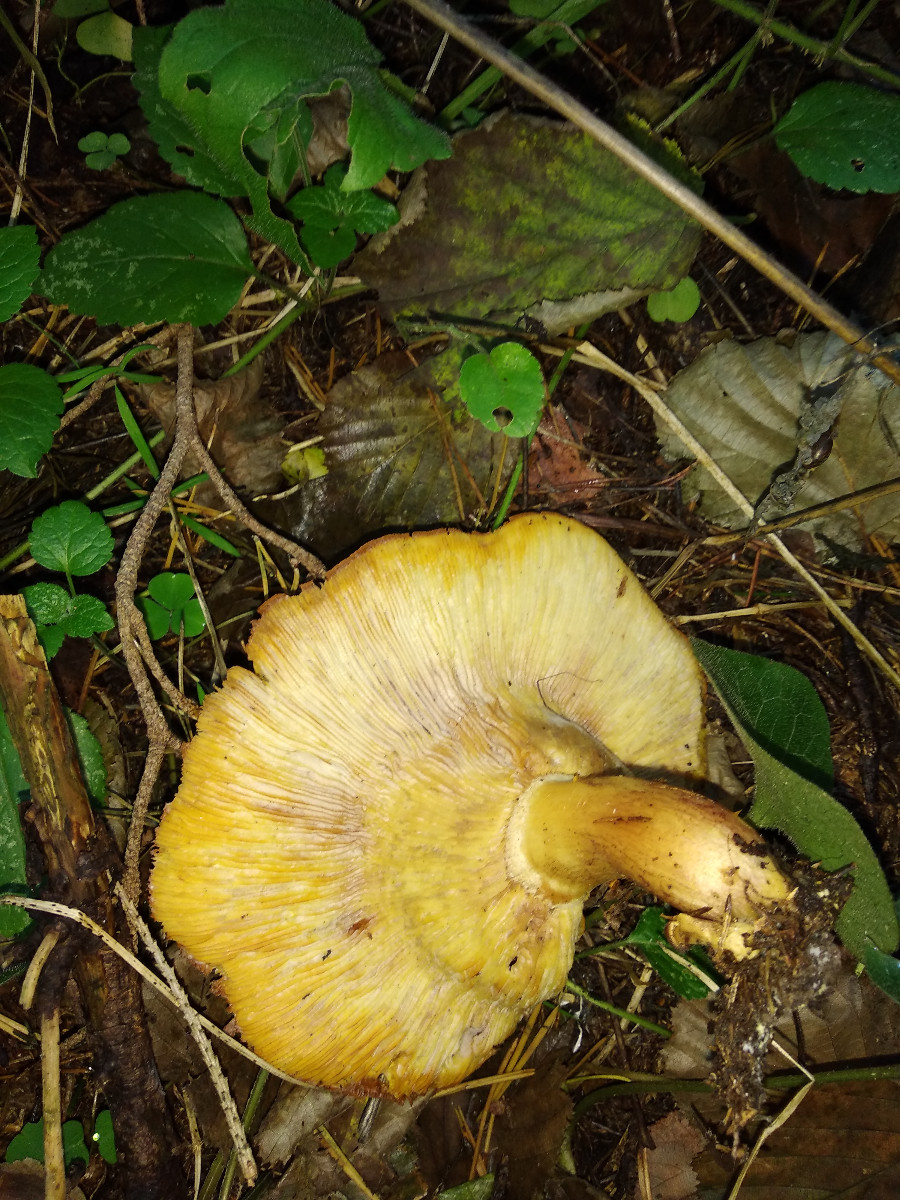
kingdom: Fungi
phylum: Basidiomycota
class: Agaricomycetes
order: Agaricales
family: Tricholomataceae
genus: Tricholomopsis
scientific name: Tricholomopsis rutilans
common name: purpur-væbnerhat
